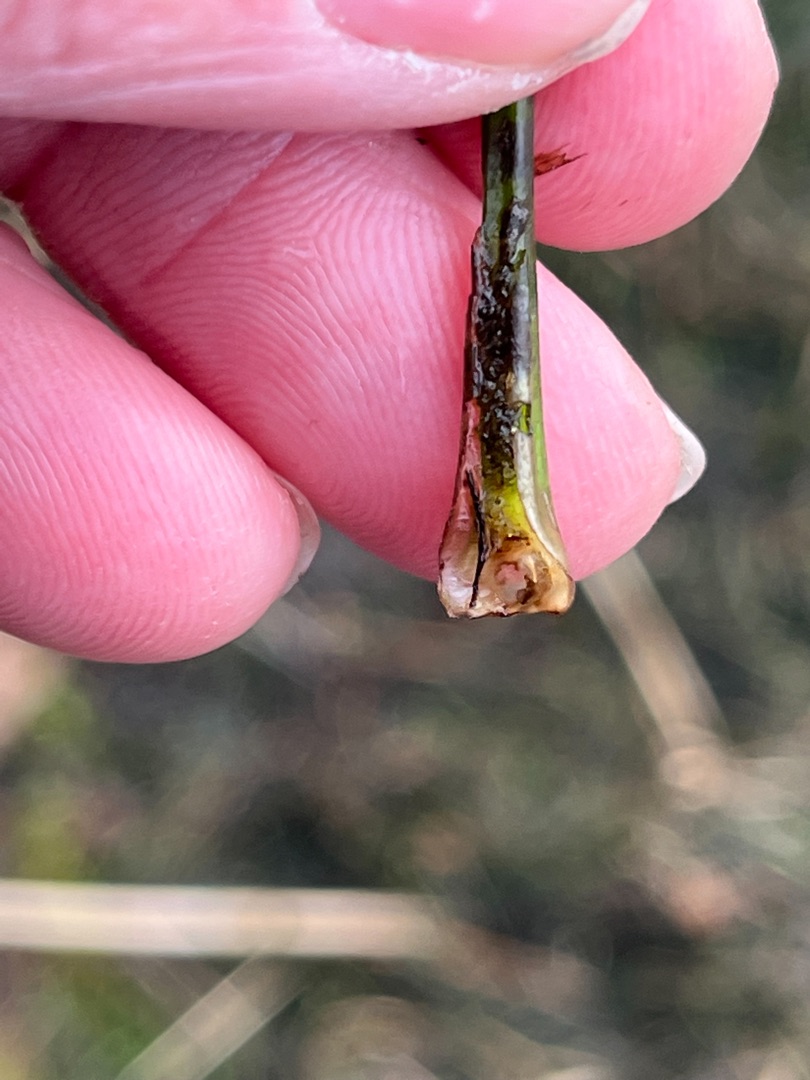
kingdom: Plantae
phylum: Tracheophyta
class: Lycopodiopsida
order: Isoetales
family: Isoetaceae
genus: Isoetes
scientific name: Isoetes lacustris
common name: Sortgrøn brasenføde
